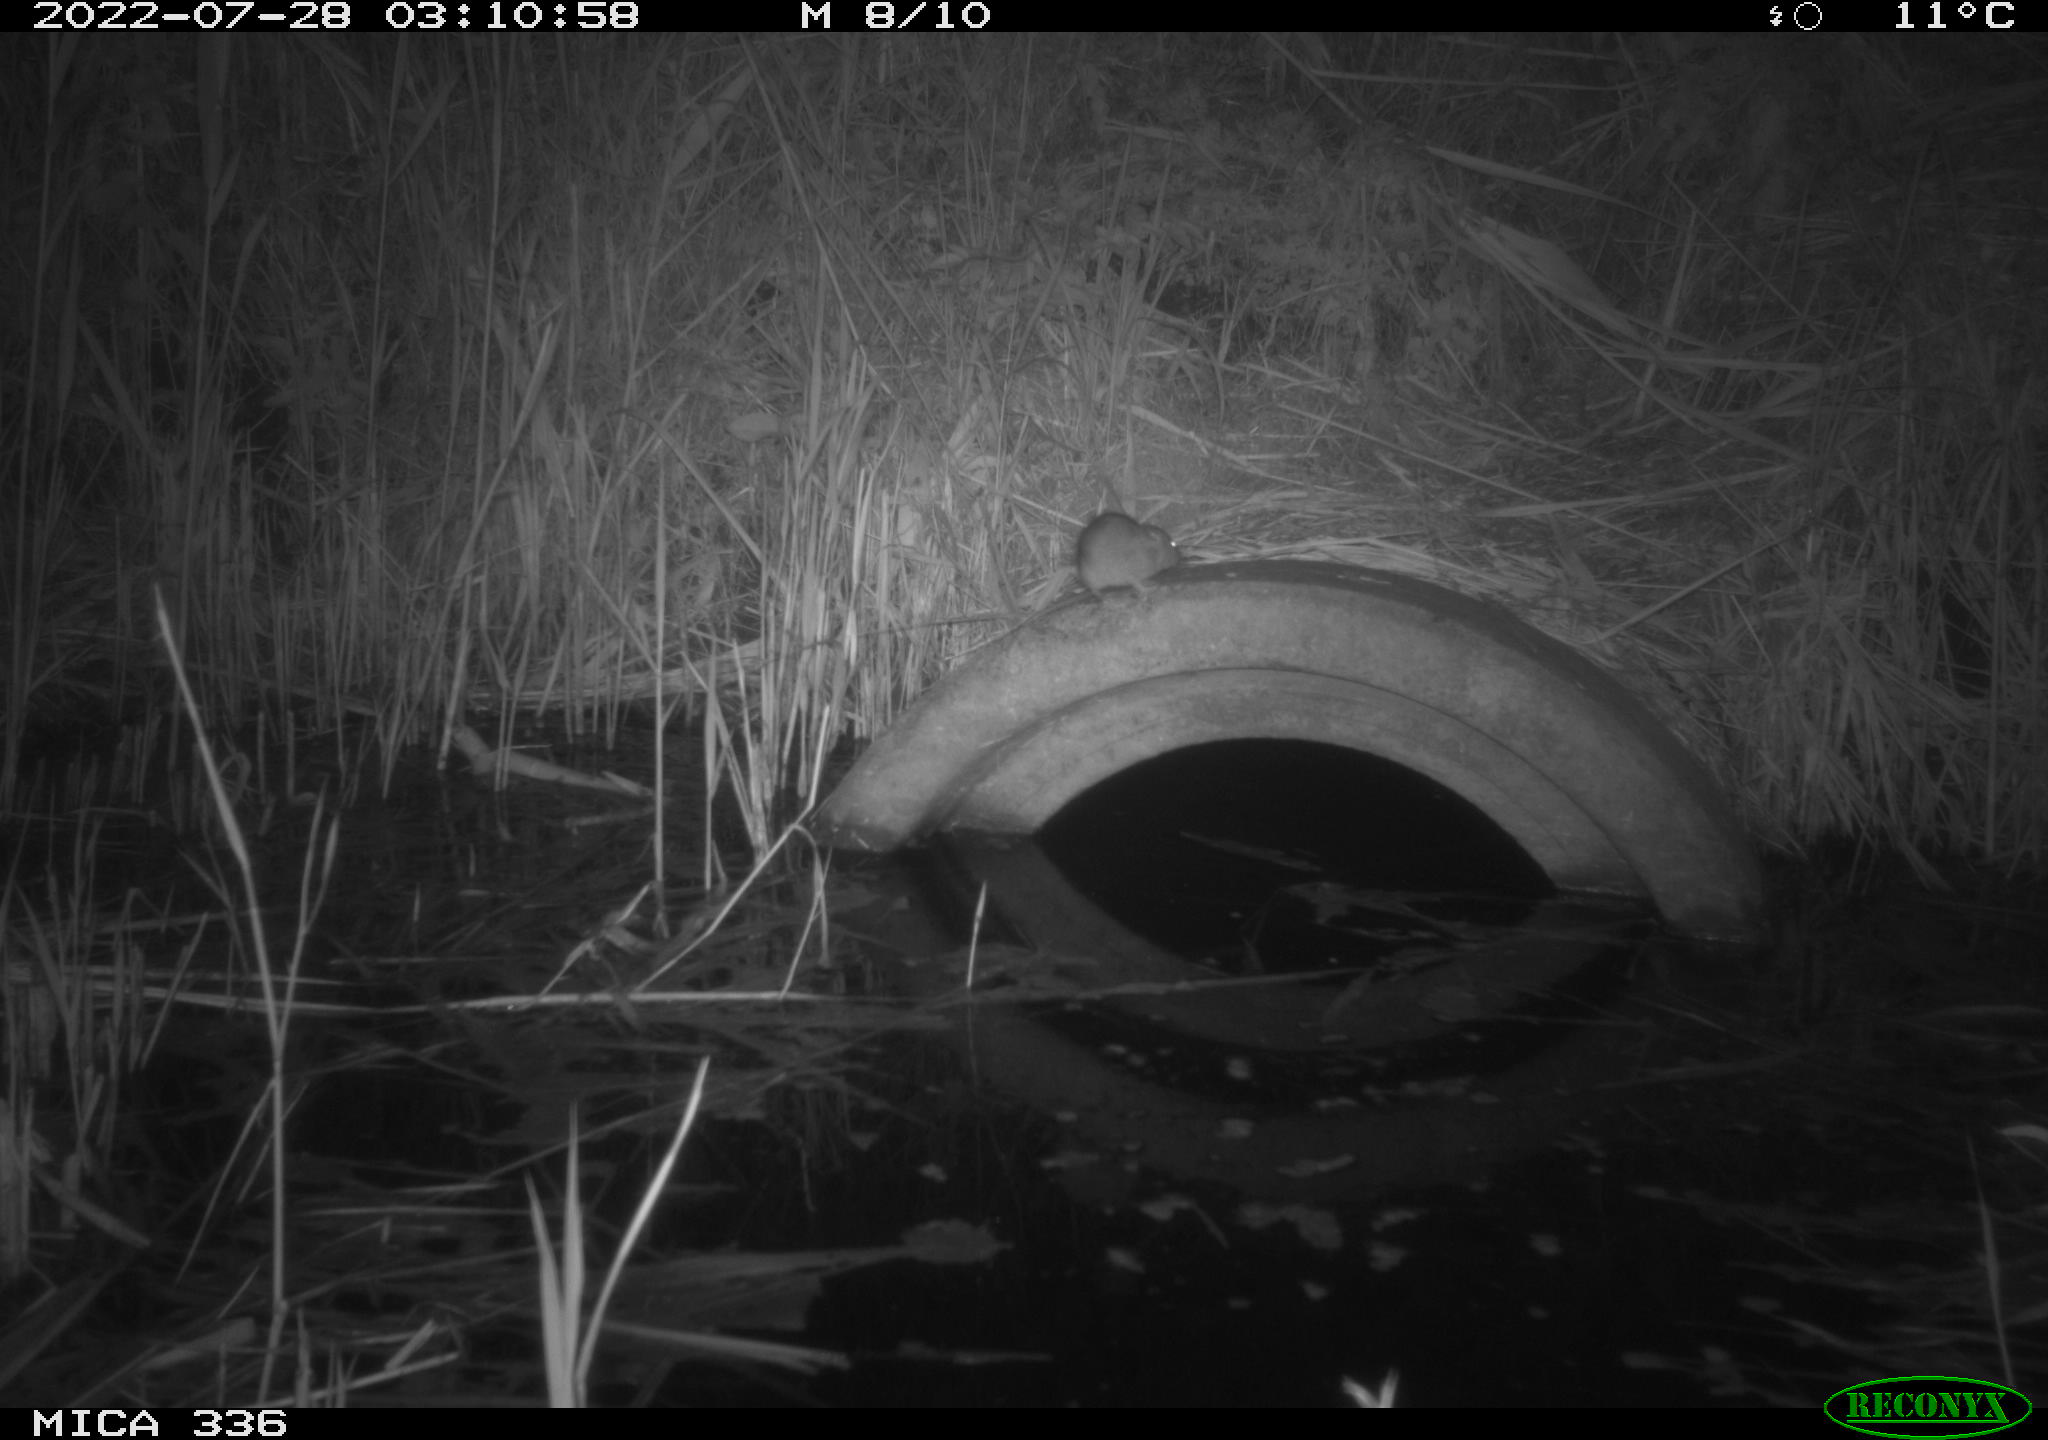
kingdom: Animalia
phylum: Chordata
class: Mammalia
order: Rodentia
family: Muridae
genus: Rattus
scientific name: Rattus norvegicus
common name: Brown rat
